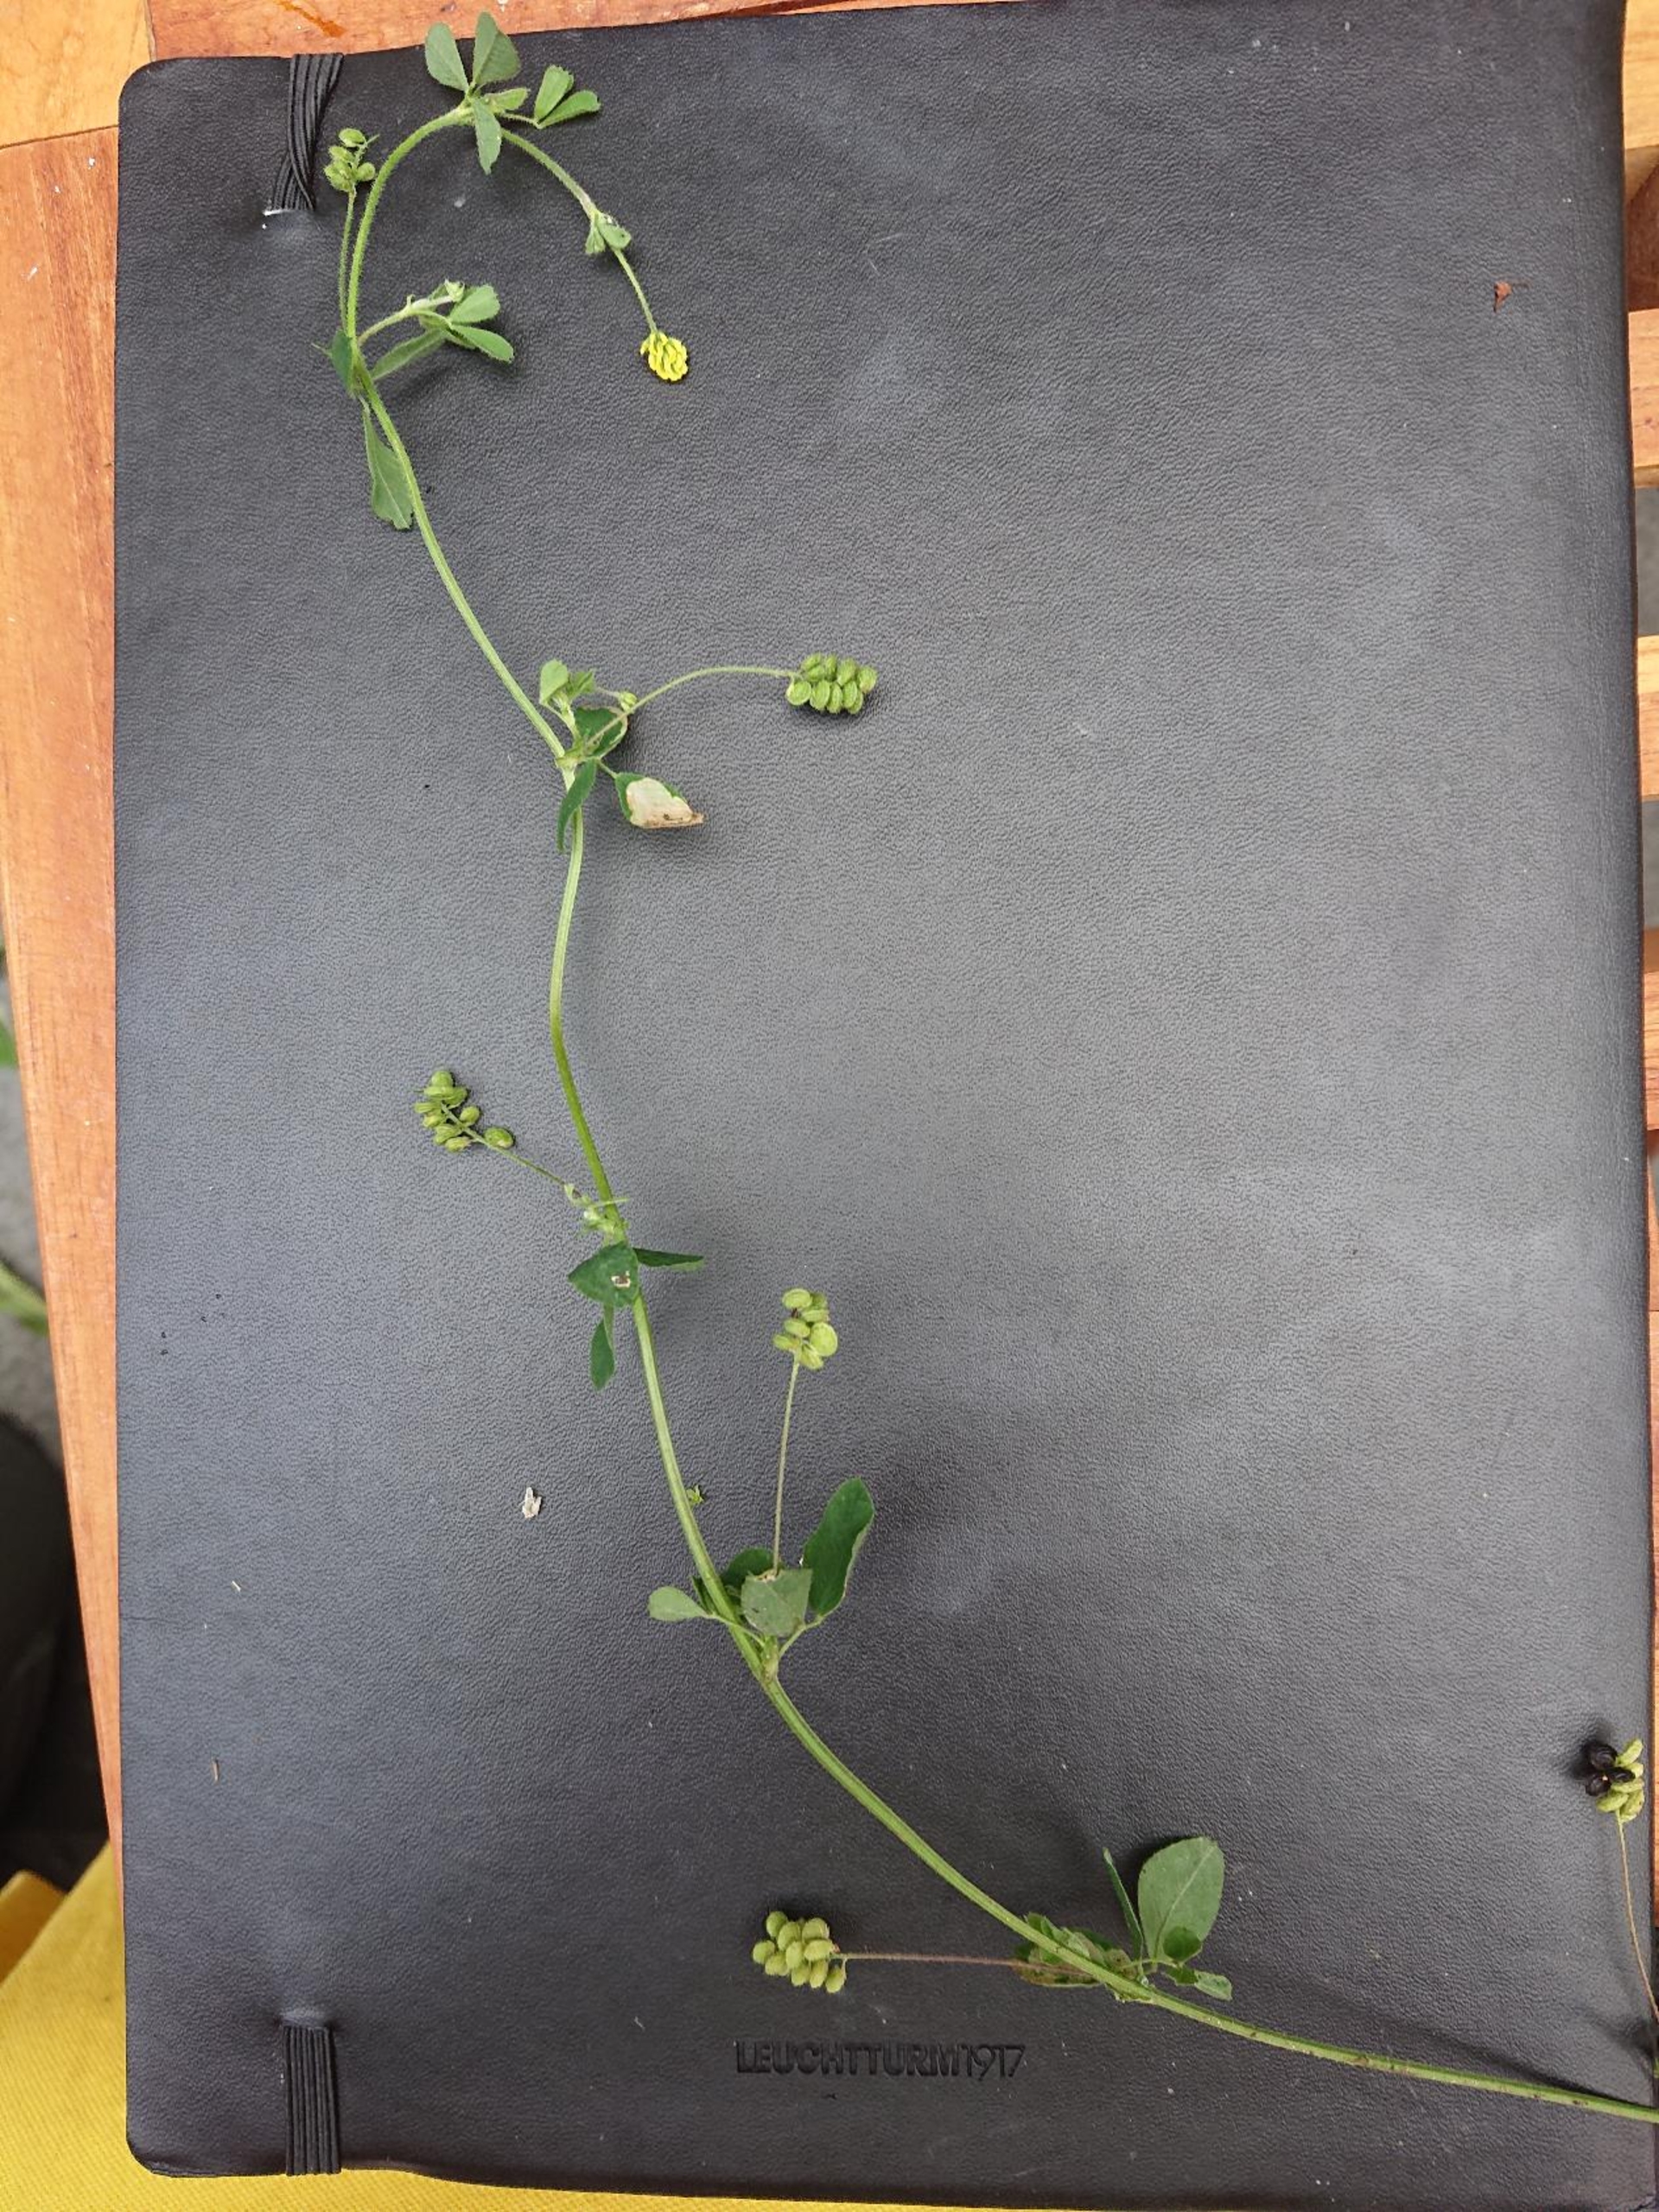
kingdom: Plantae
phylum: Tracheophyta
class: Magnoliopsida
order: Fabales
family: Fabaceae
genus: Medicago
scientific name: Medicago lupulina
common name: Humle-sneglebælg
